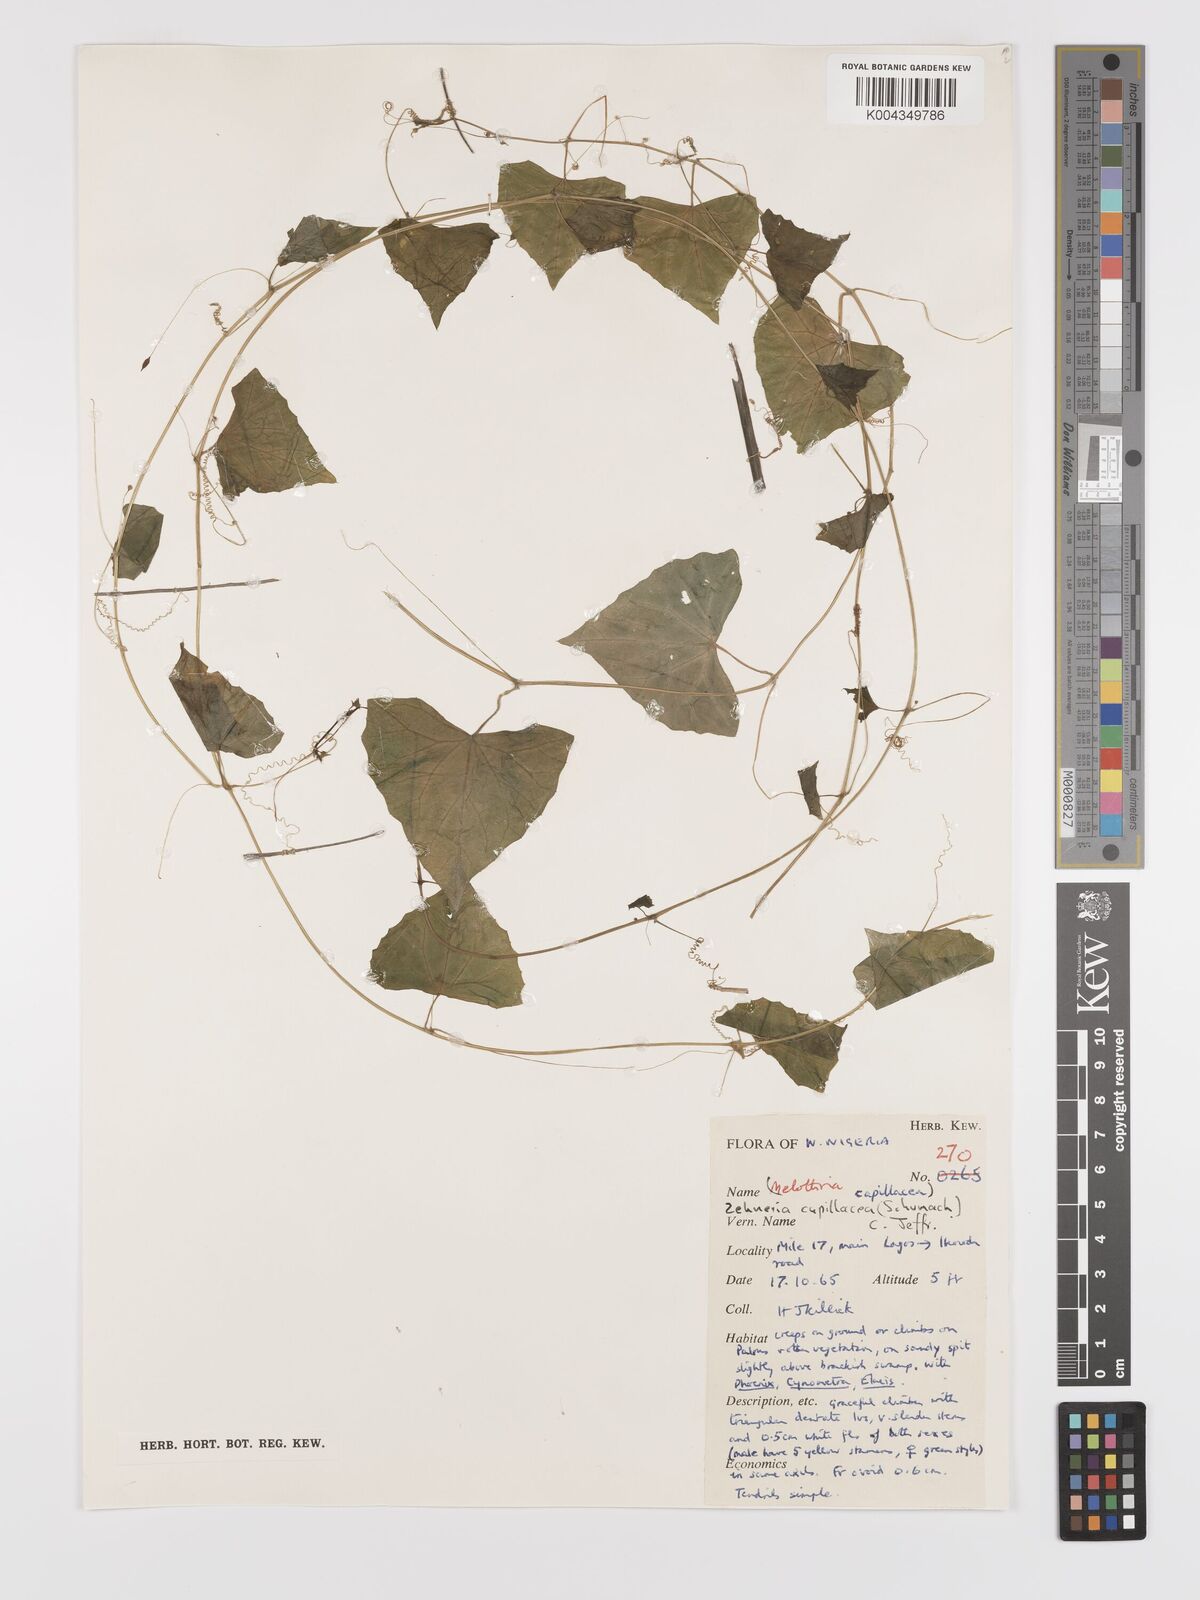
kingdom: Plantae
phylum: Tracheophyta
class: Magnoliopsida
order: Cucurbitales
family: Cucurbitaceae
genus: Zehneria
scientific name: Zehneria capillacea
